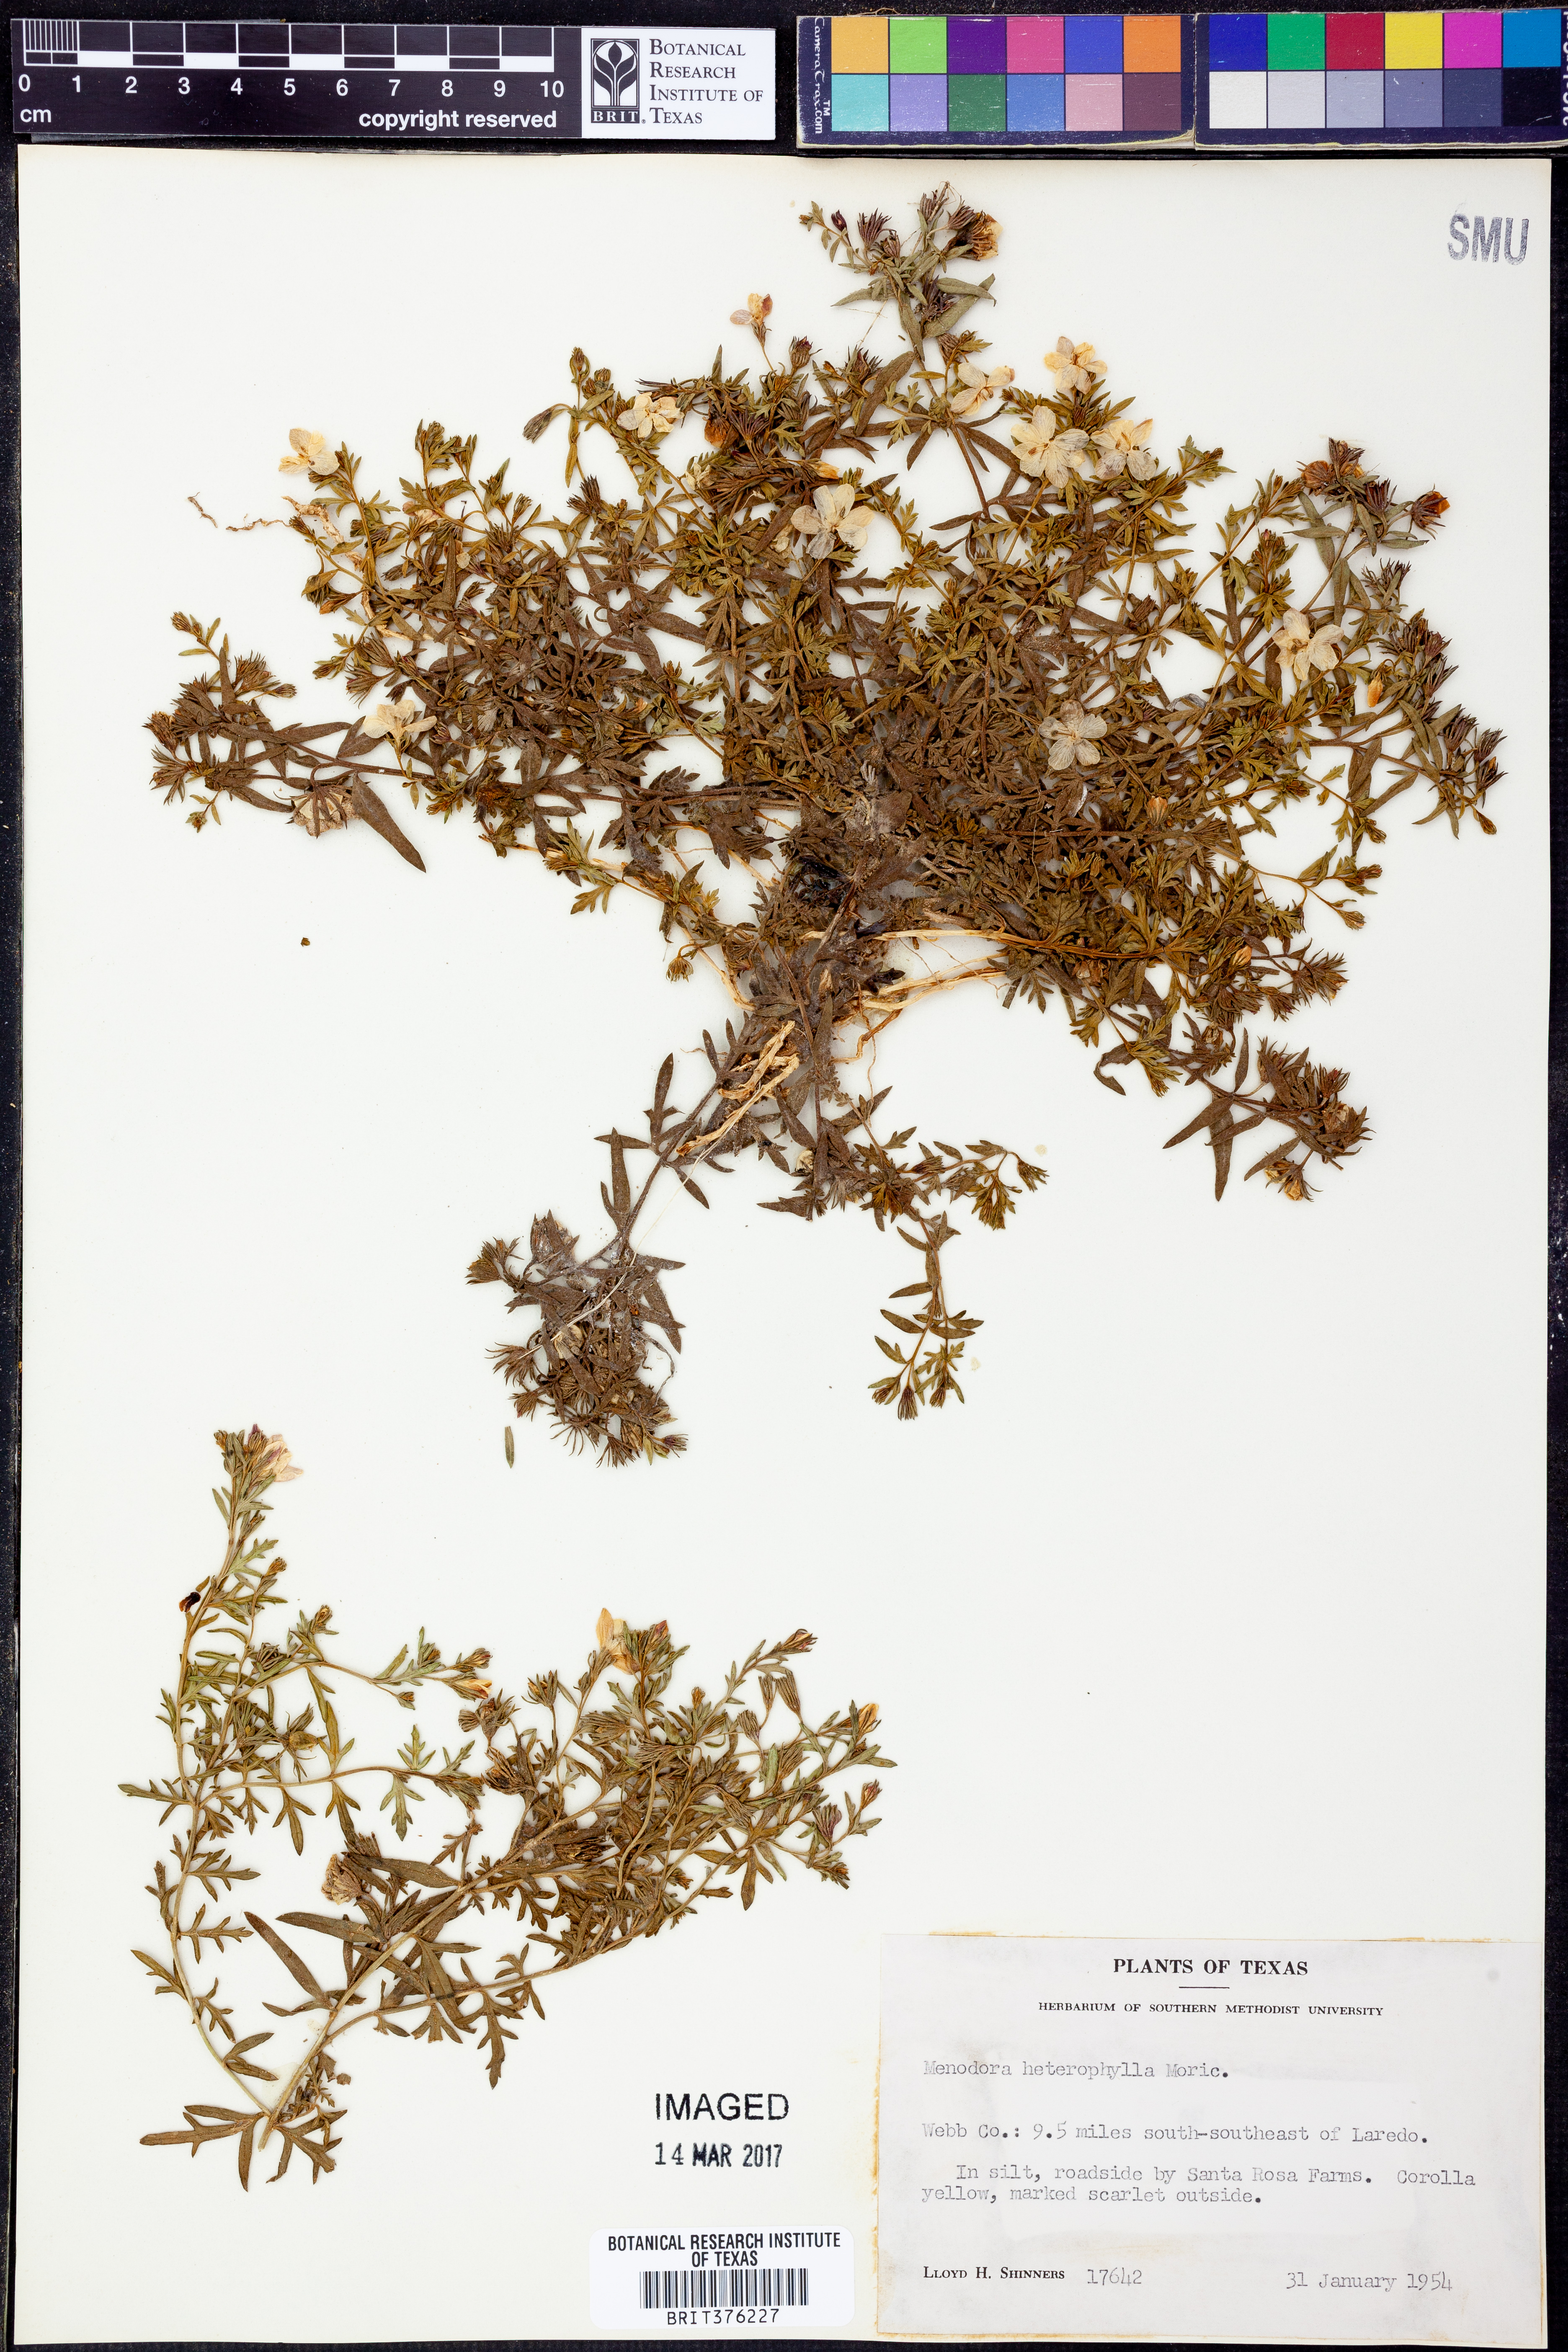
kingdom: Plantae
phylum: Tracheophyta
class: Magnoliopsida
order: Lamiales
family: Oleaceae
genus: Menodora
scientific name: Menodora heterophylla
